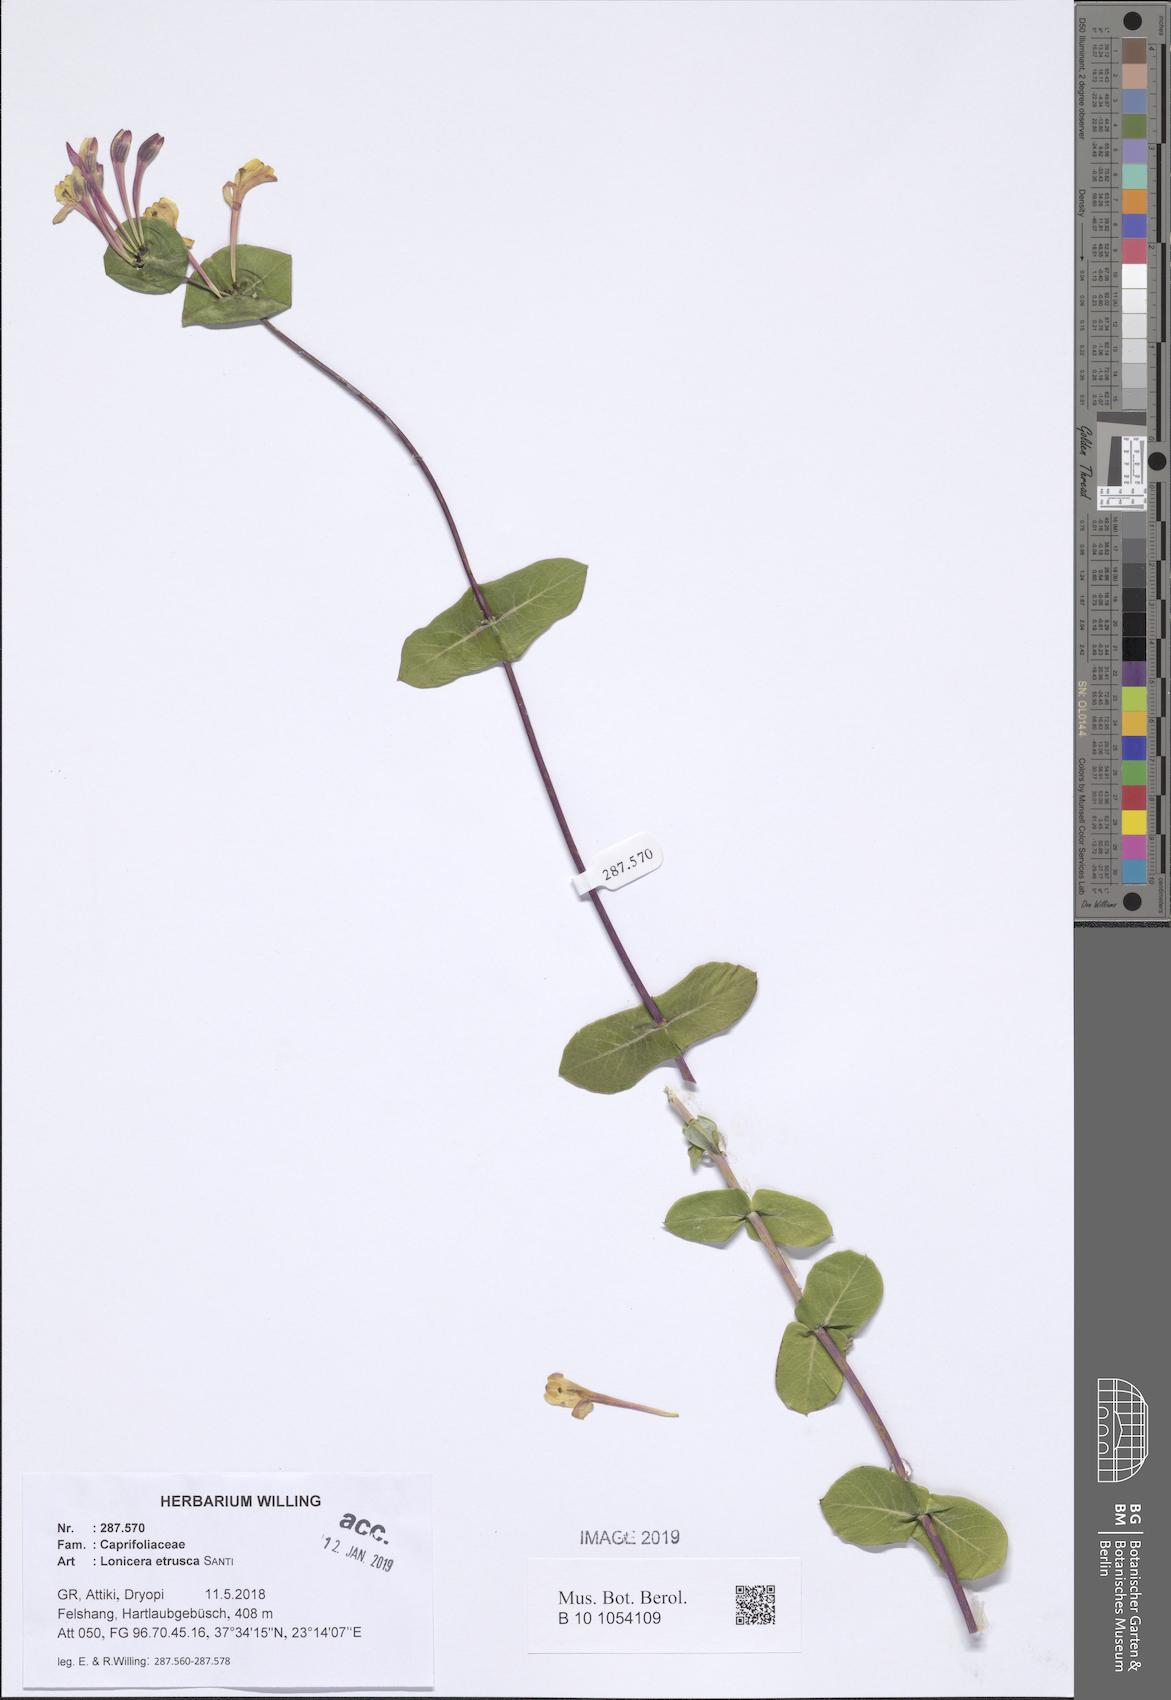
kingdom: Plantae
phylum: Tracheophyta
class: Magnoliopsida
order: Dipsacales
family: Caprifoliaceae
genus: Lonicera
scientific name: Lonicera implexa
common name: Minorca honeysuckle
